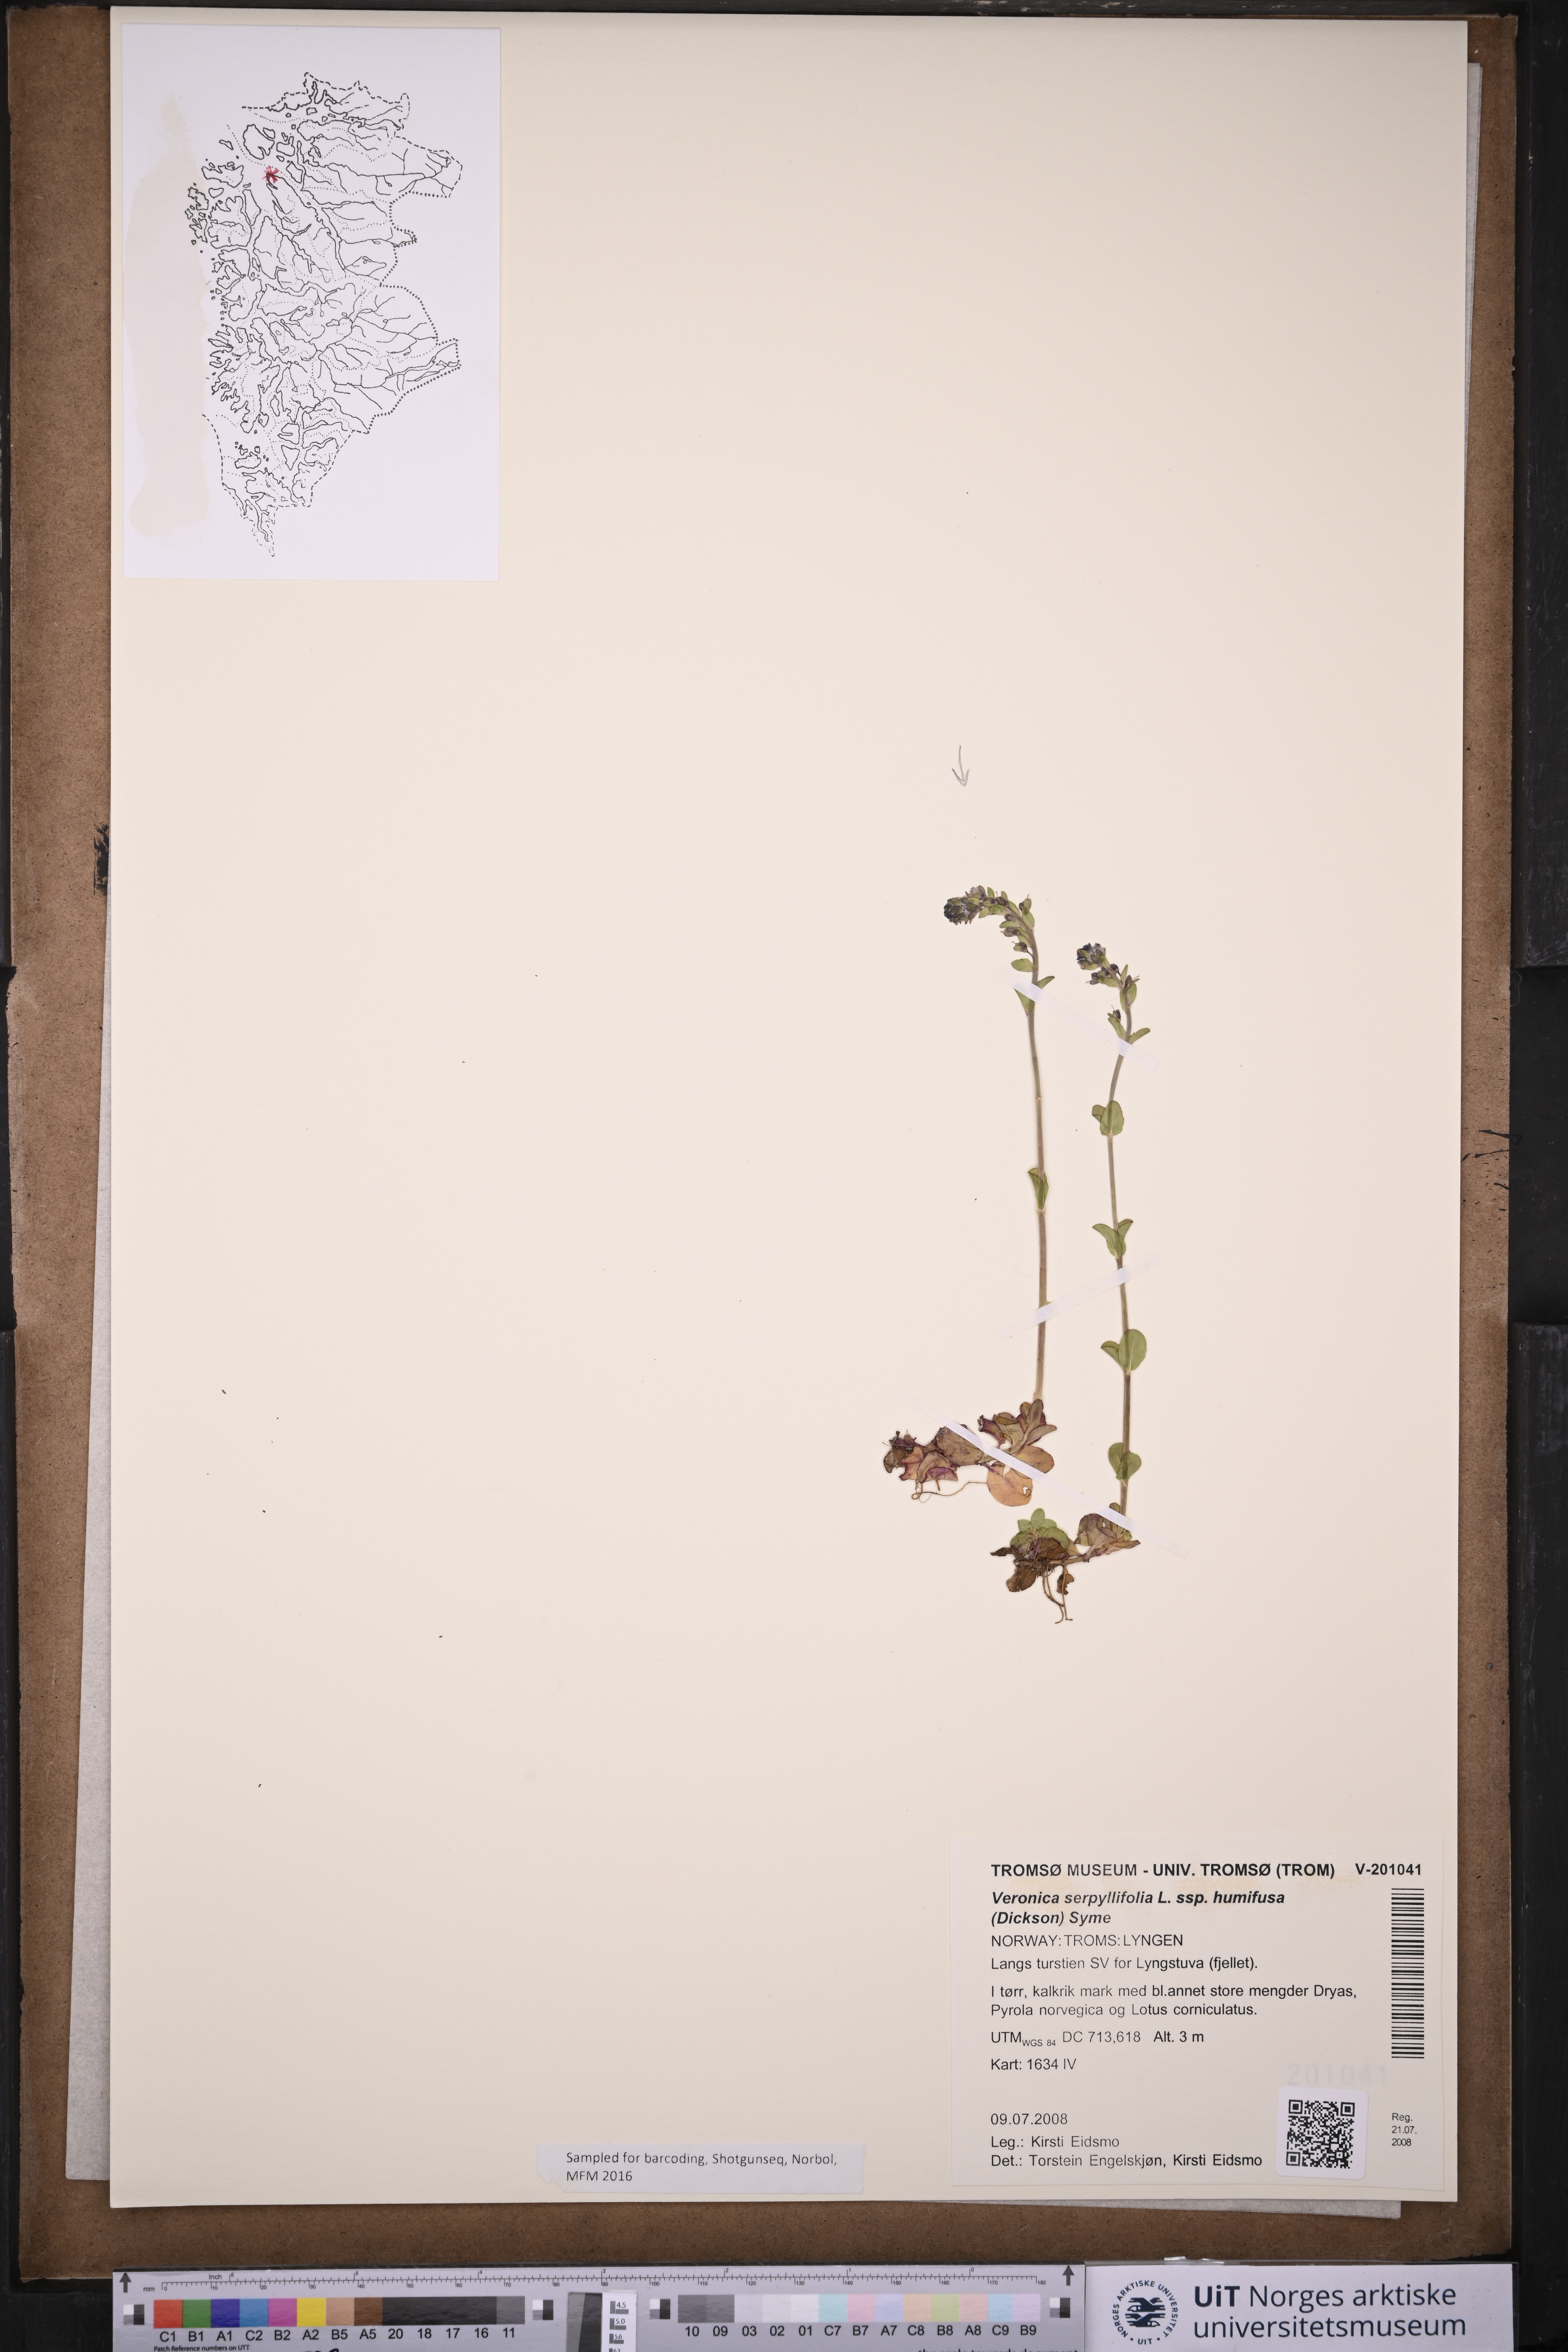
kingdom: Plantae
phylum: Tracheophyta
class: Magnoliopsida
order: Lamiales
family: Plantaginaceae
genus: Veronica
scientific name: Veronica serpyllifolia
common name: Thyme-leaved speedwell
